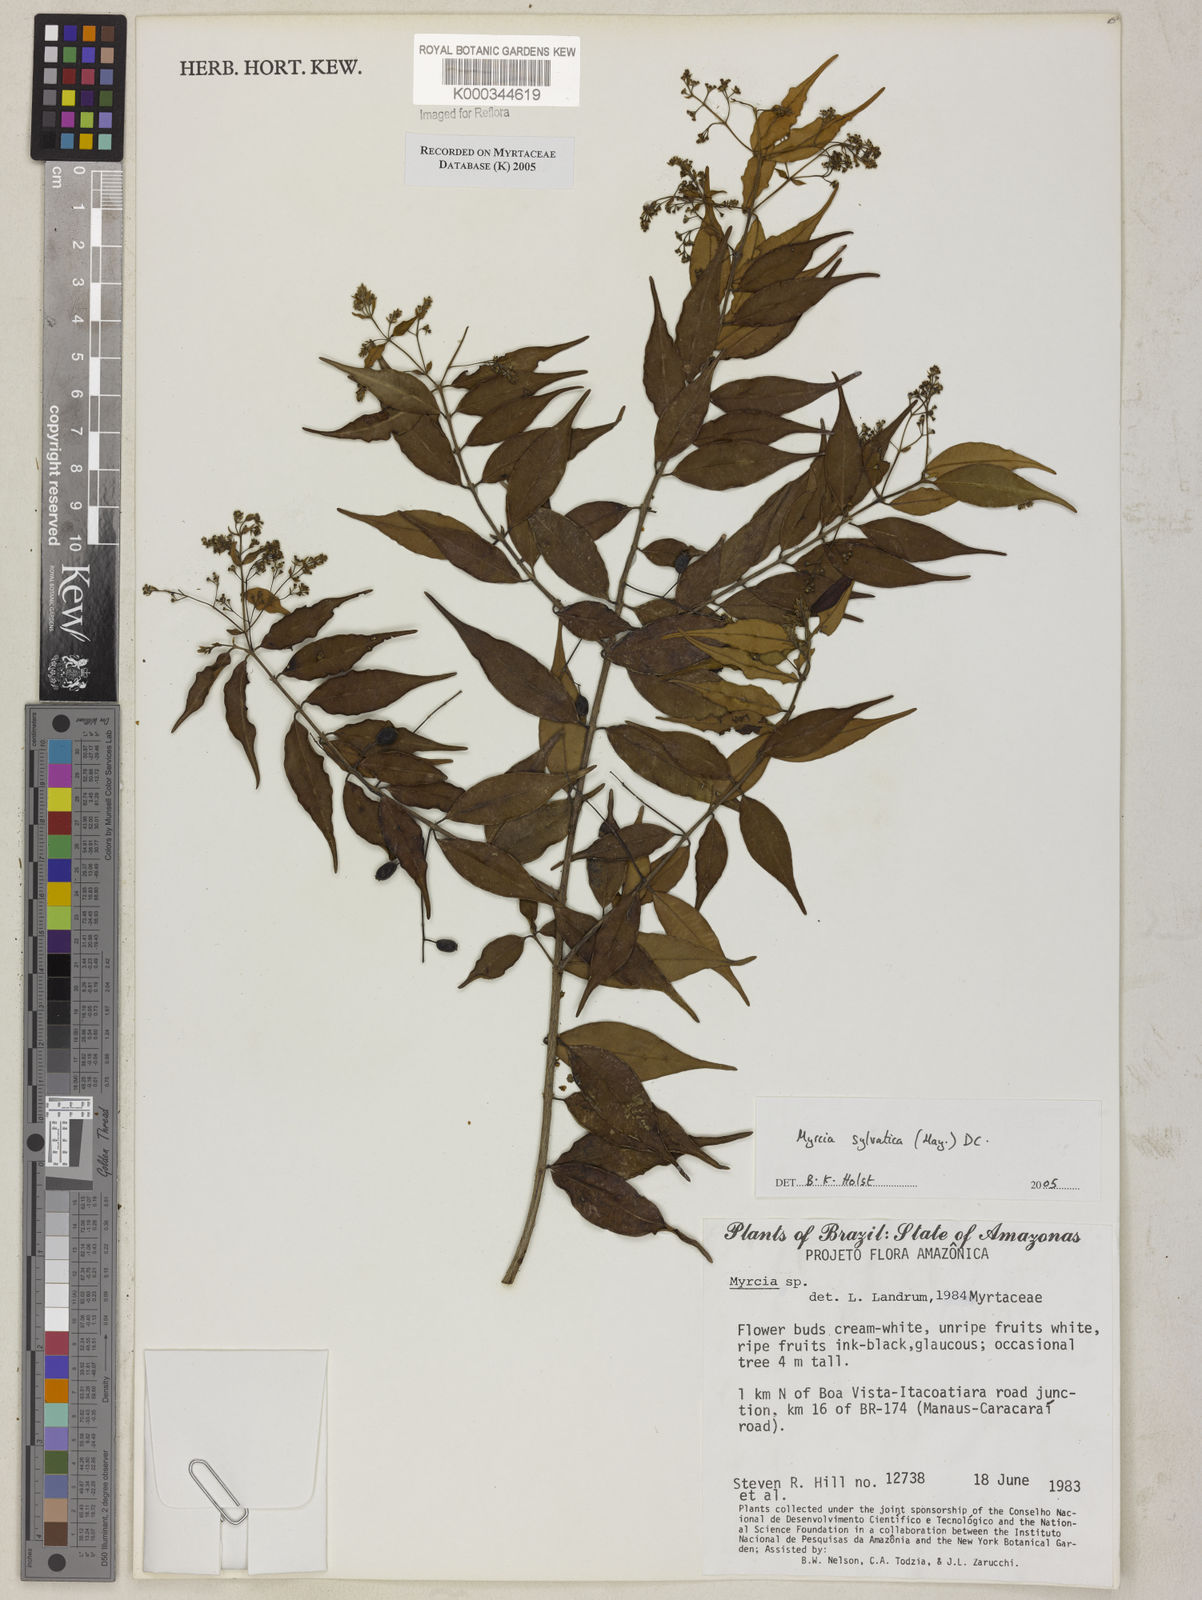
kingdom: Plantae
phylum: Tracheophyta
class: Magnoliopsida
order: Myrtales
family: Myrtaceae
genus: Myrcia
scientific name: Myrcia sylvatica
